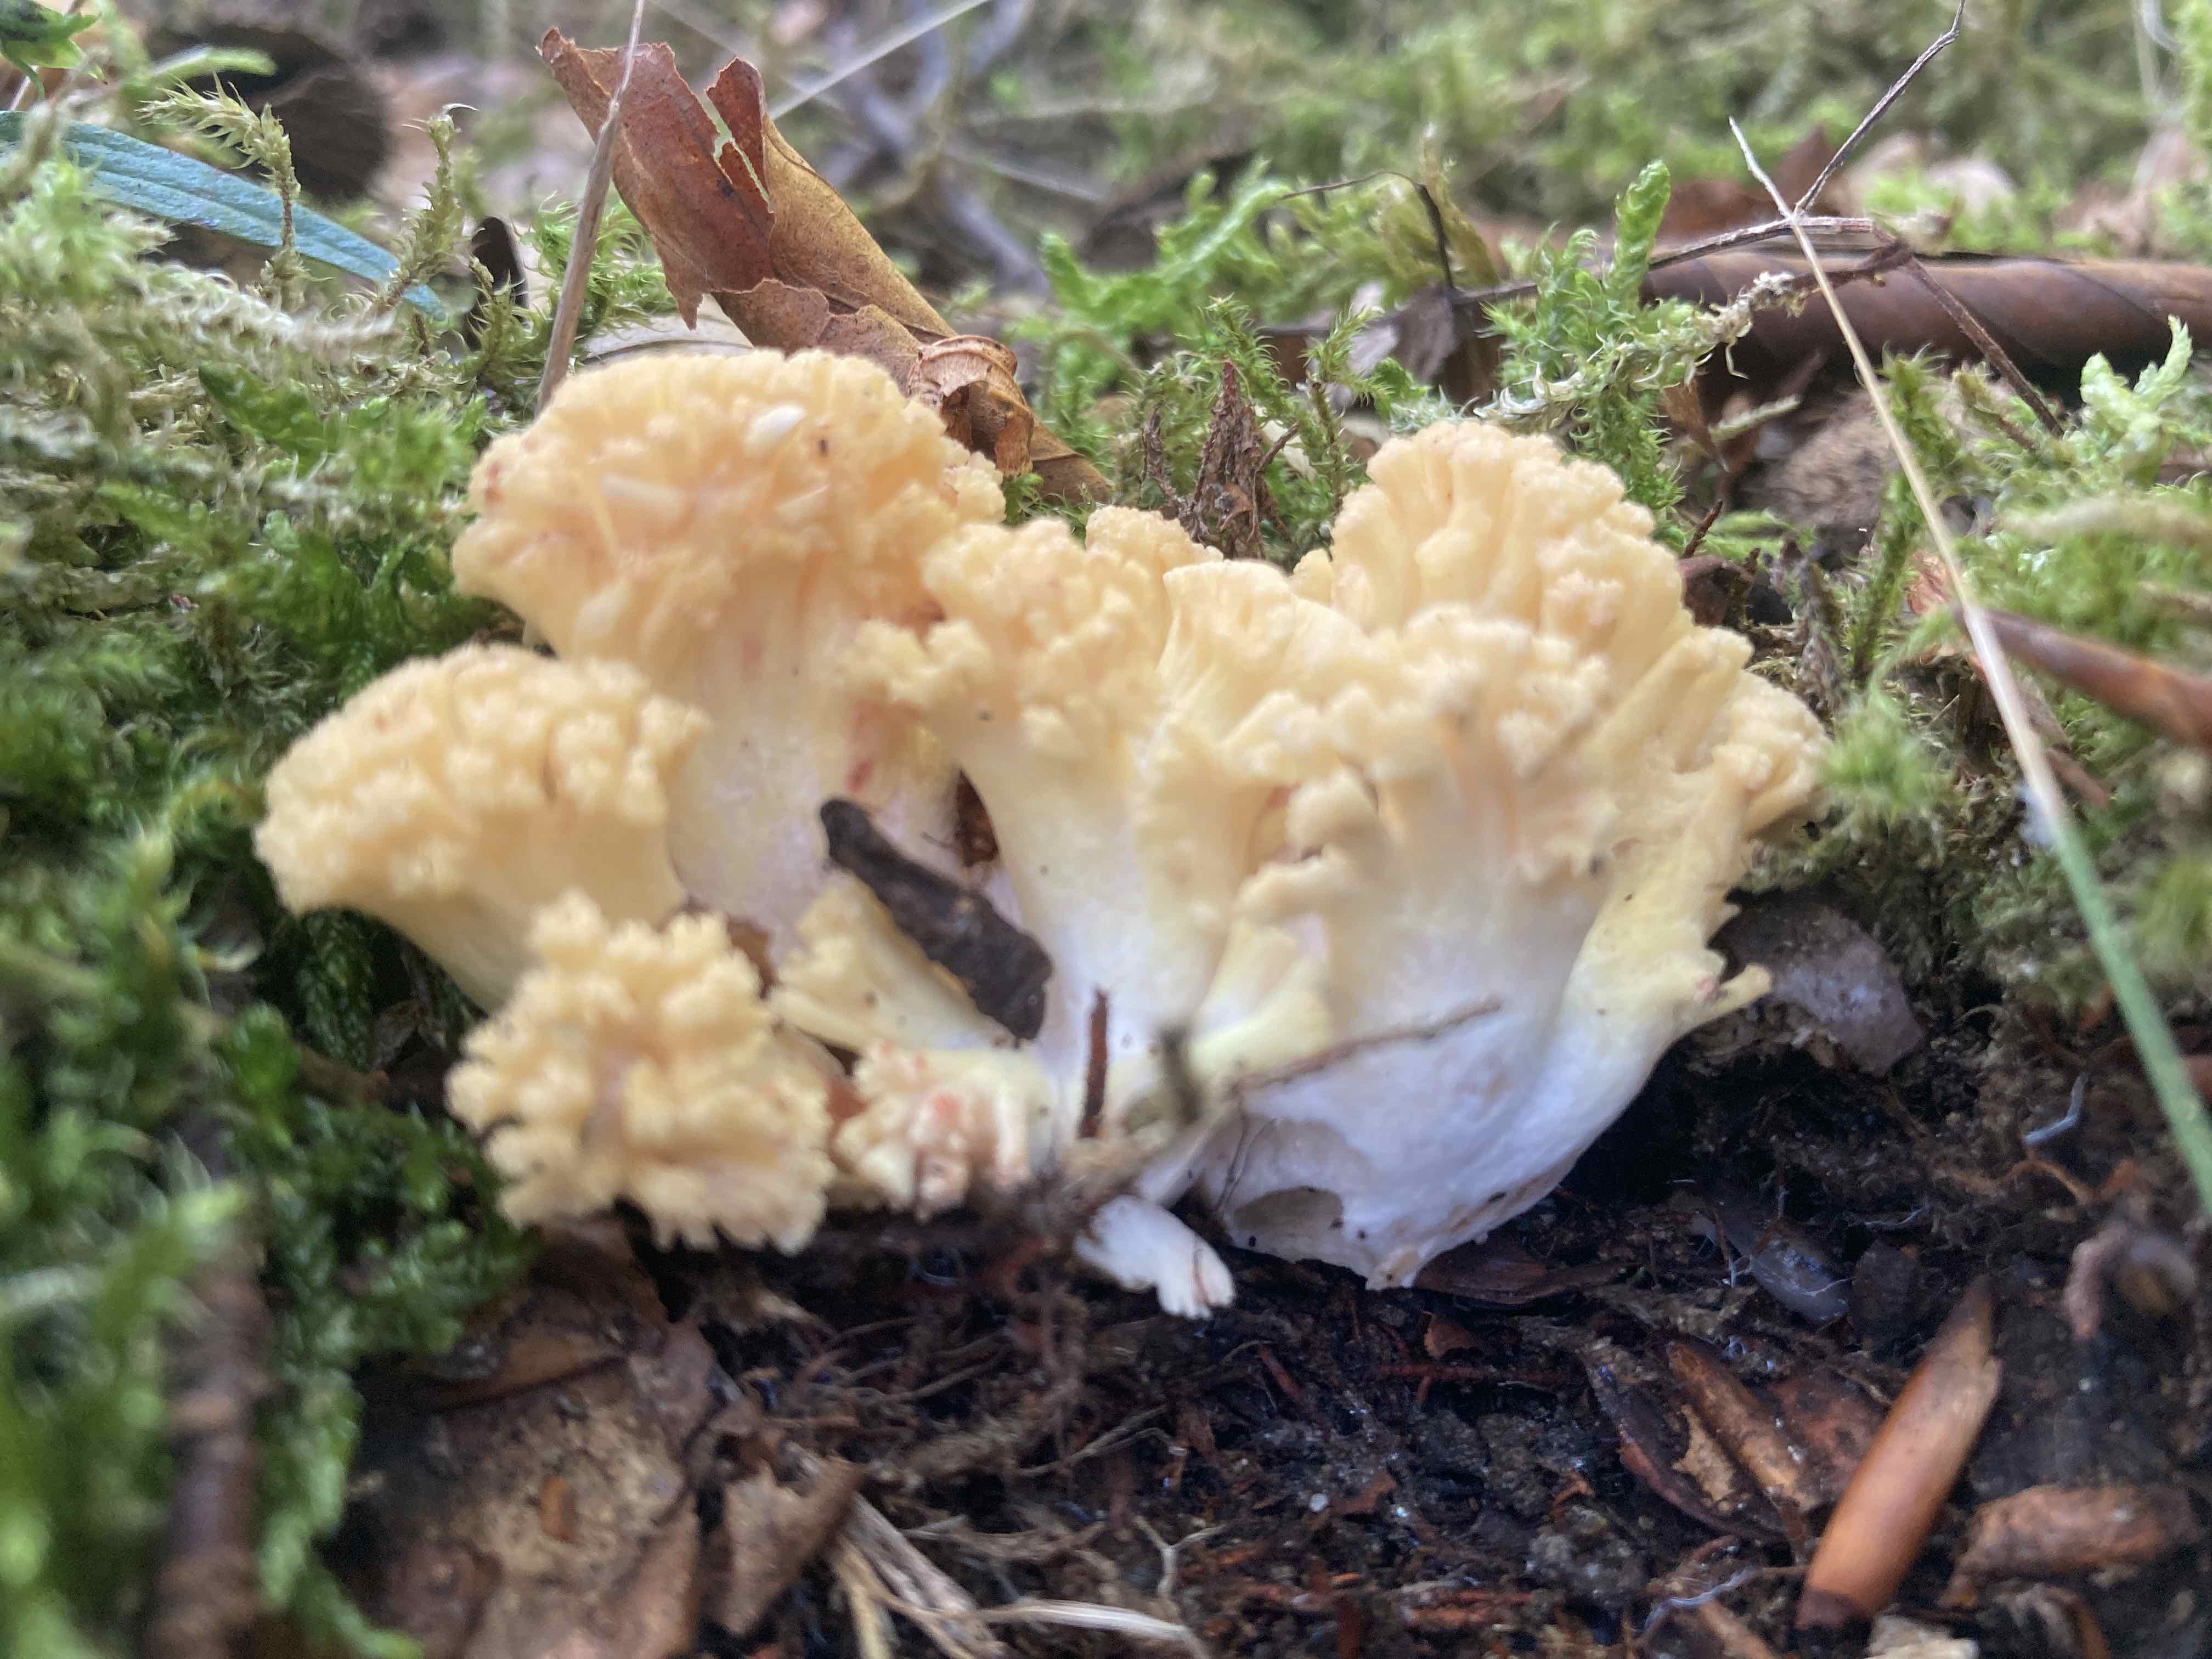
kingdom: Fungi
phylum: Basidiomycota
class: Agaricomycetes
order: Gomphales
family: Gomphaceae
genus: Ramaria
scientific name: Ramaria sanguinea
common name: blodplettet koralsvamp
